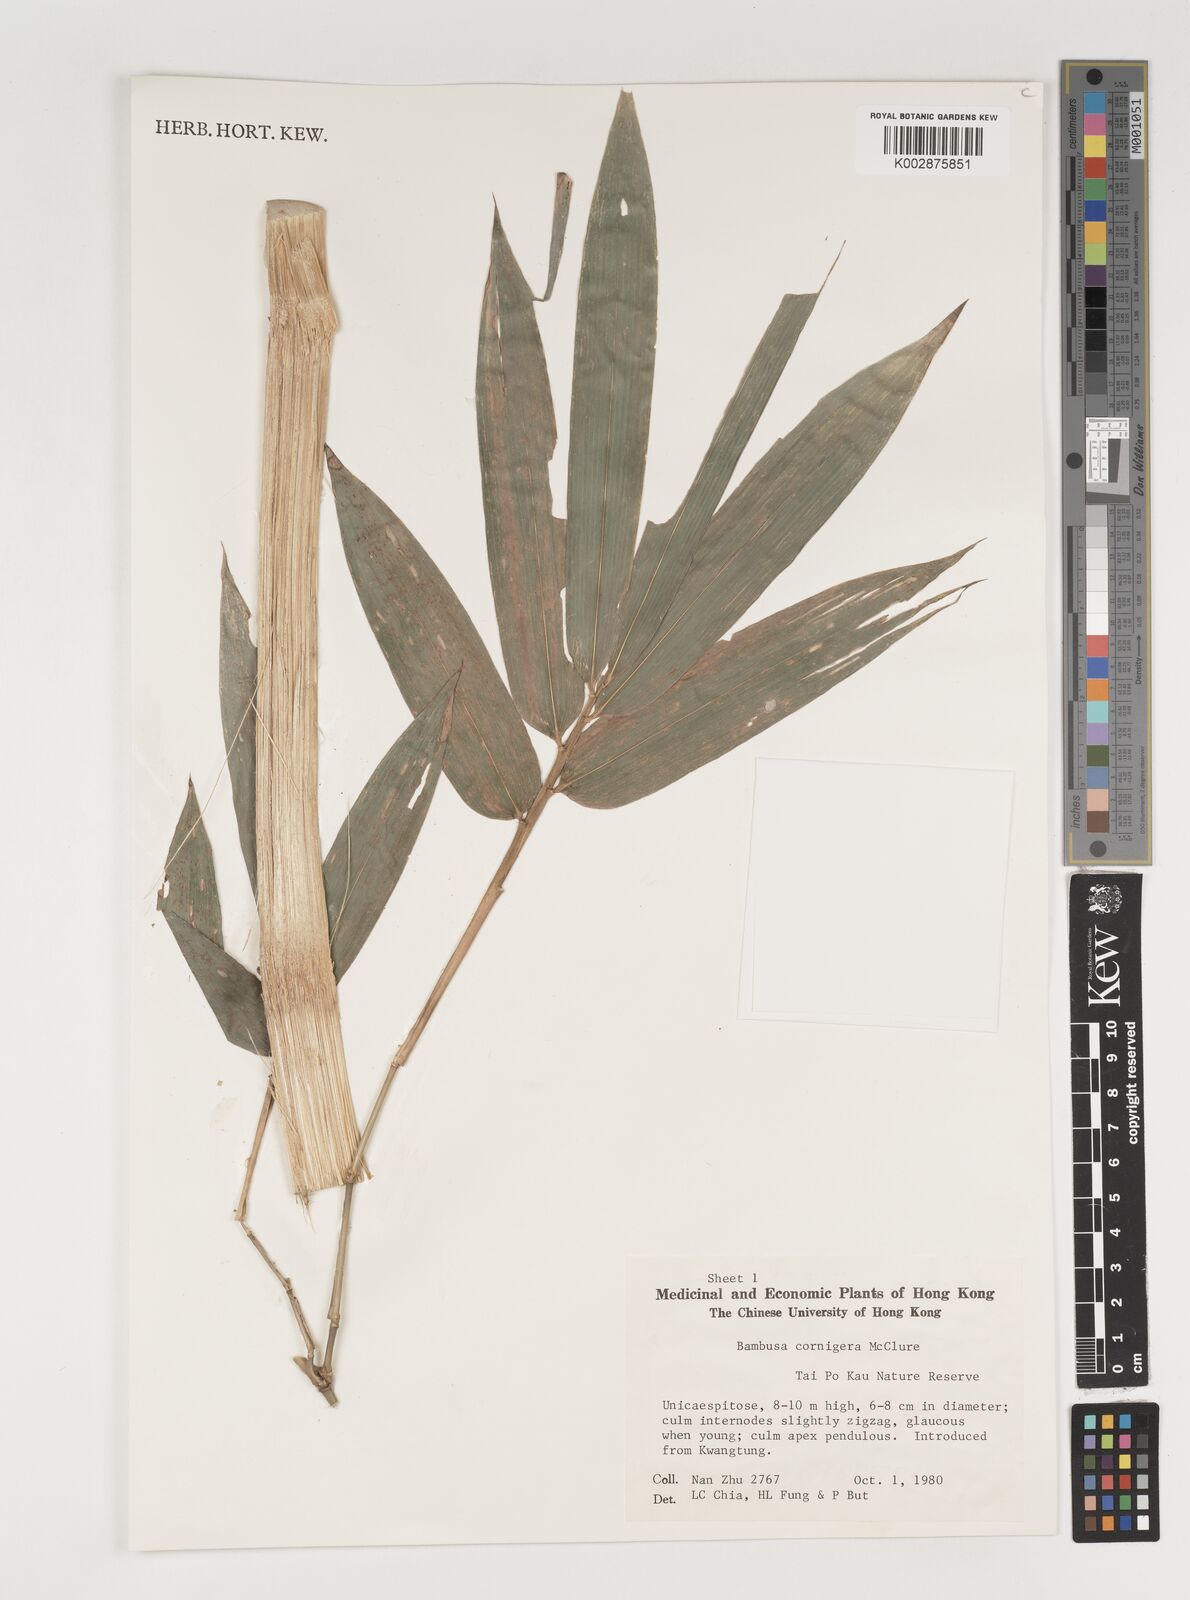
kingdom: Plantae
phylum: Tracheophyta
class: Liliopsida
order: Poales
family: Poaceae
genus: Bambusa
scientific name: Bambusa cornigera
